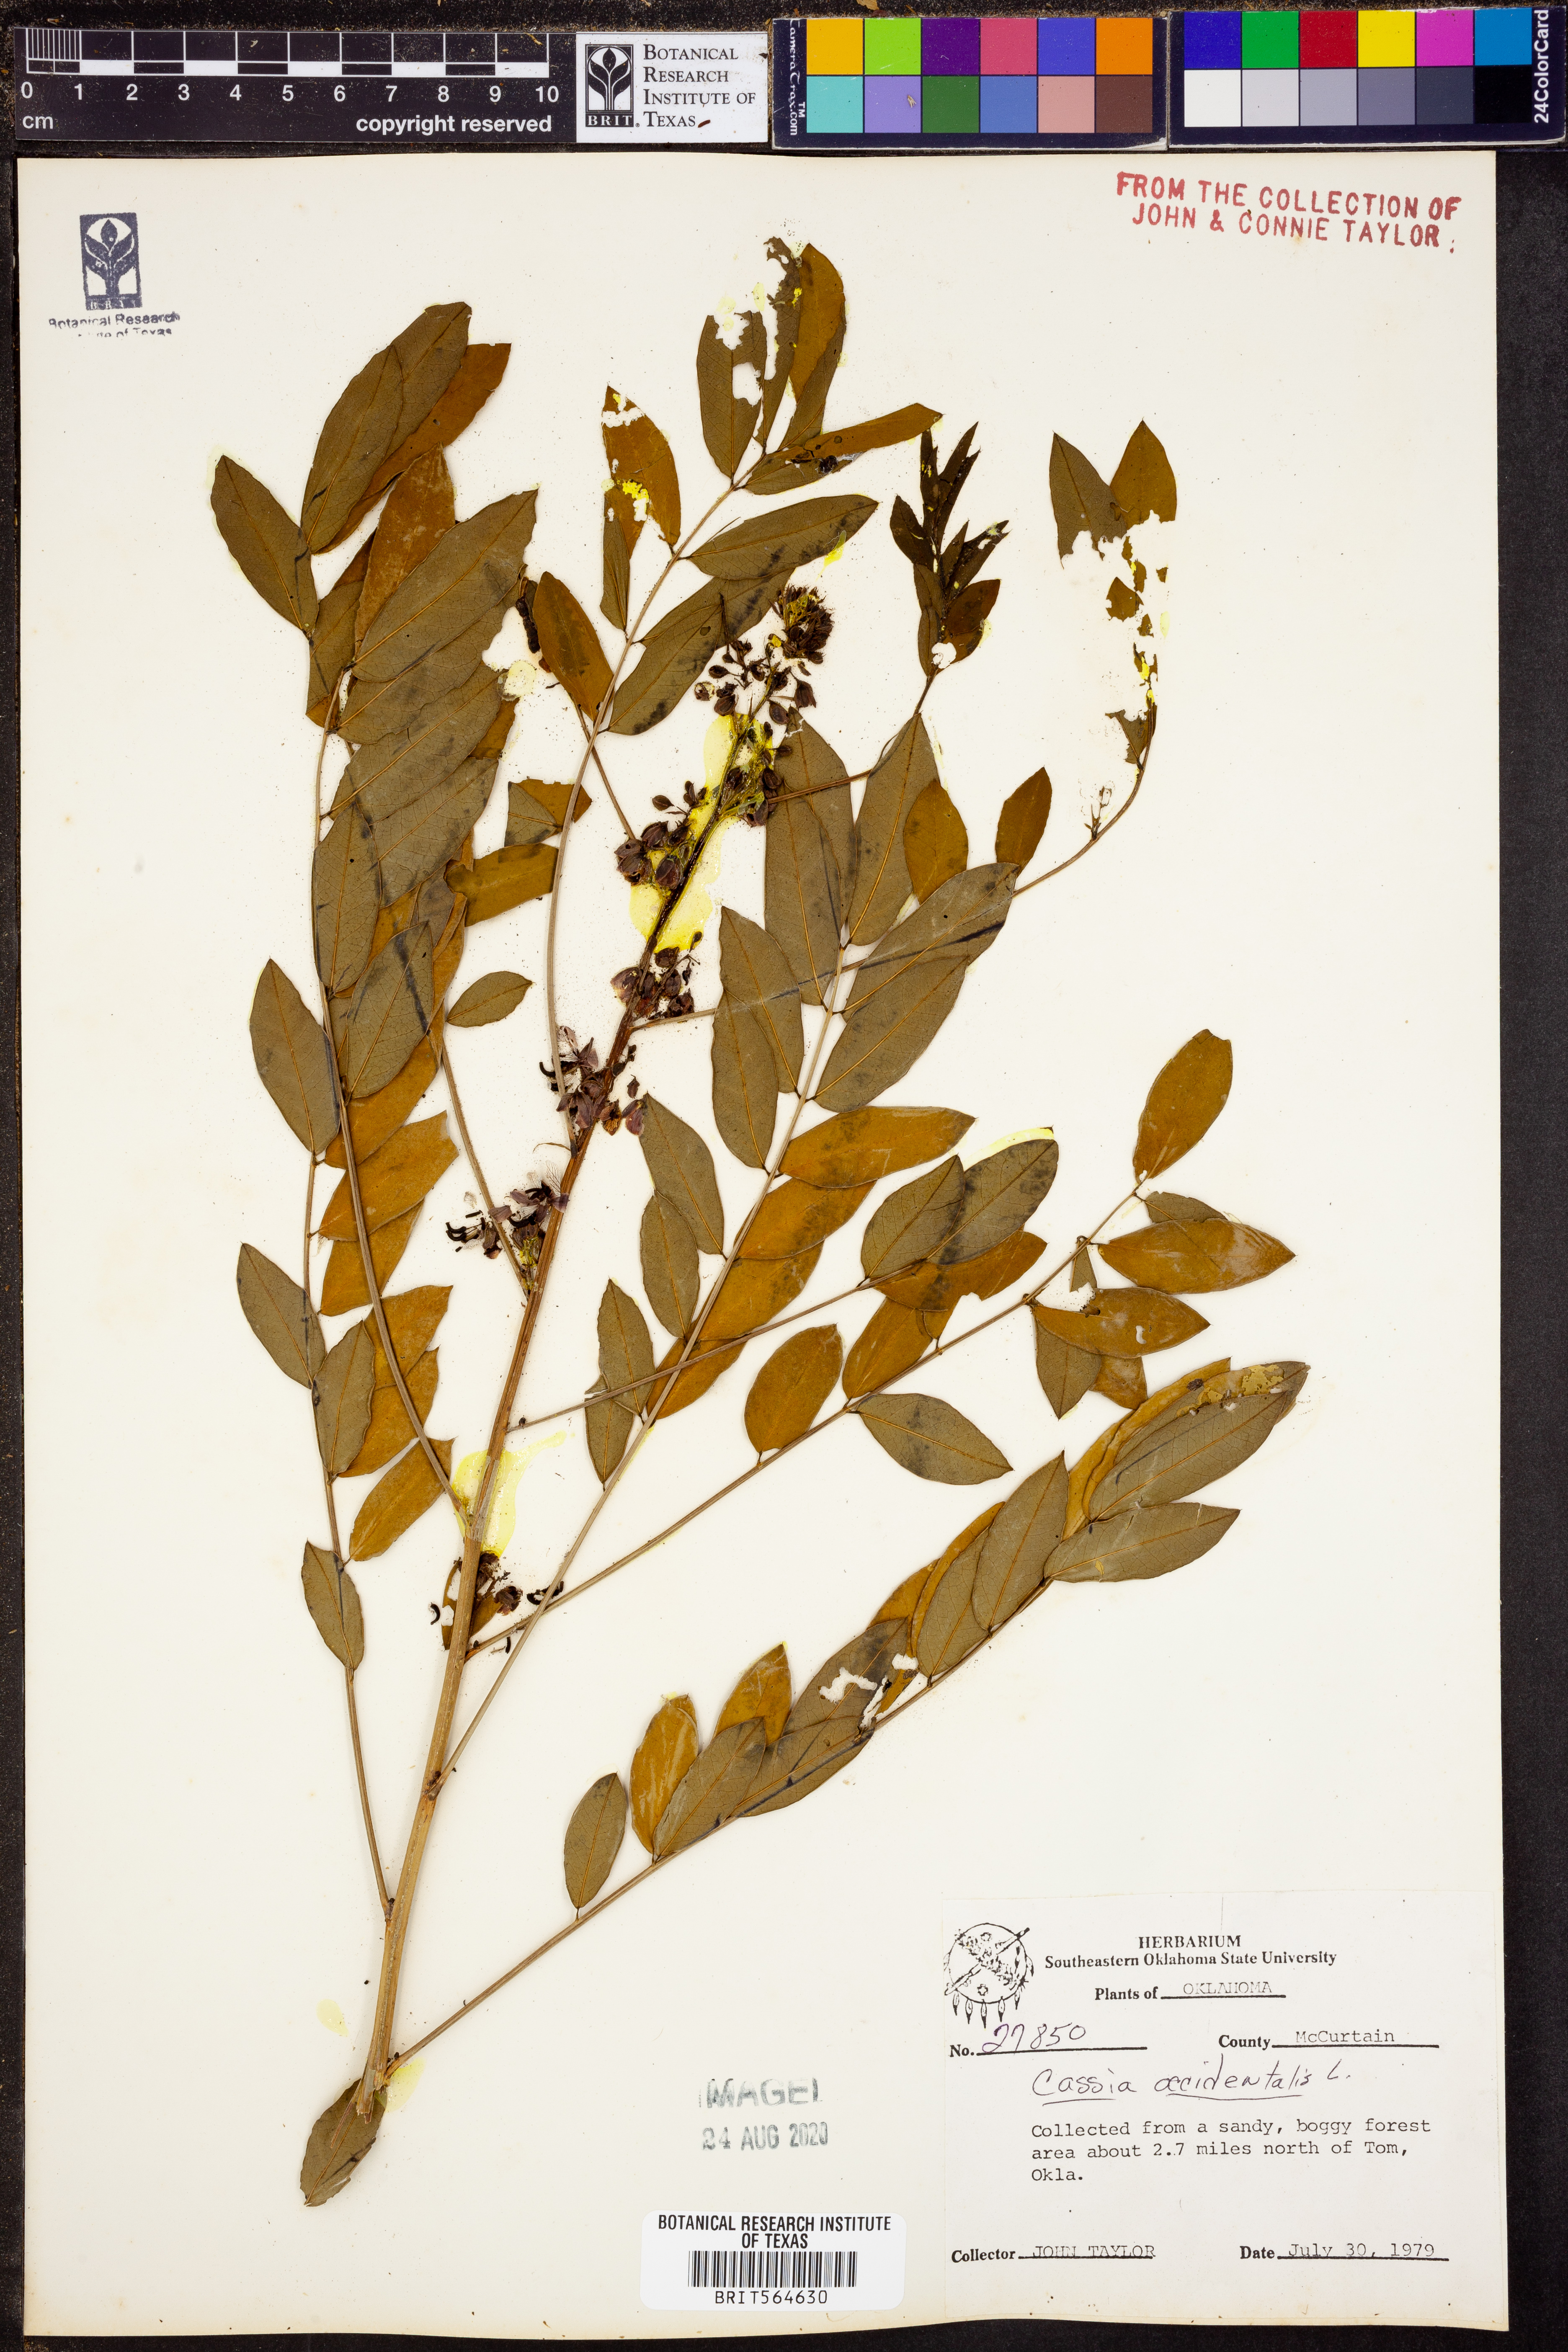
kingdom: Plantae
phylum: Tracheophyta
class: Magnoliopsida
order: Fabales
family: Fabaceae
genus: Senna
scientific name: Senna occidentalis
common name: Septicweed
